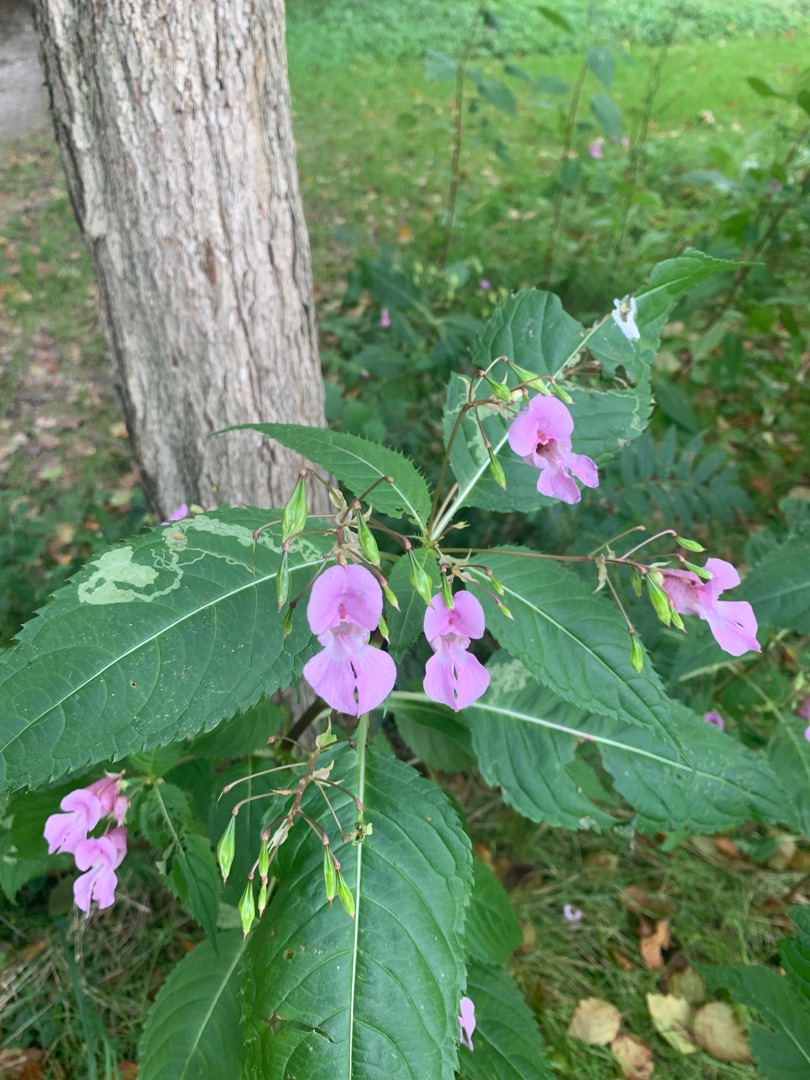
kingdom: Plantae
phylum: Tracheophyta
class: Magnoliopsida
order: Ericales
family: Balsaminaceae
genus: Impatiens
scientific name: Impatiens glandulifera
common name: Kæmpe-balsamin
